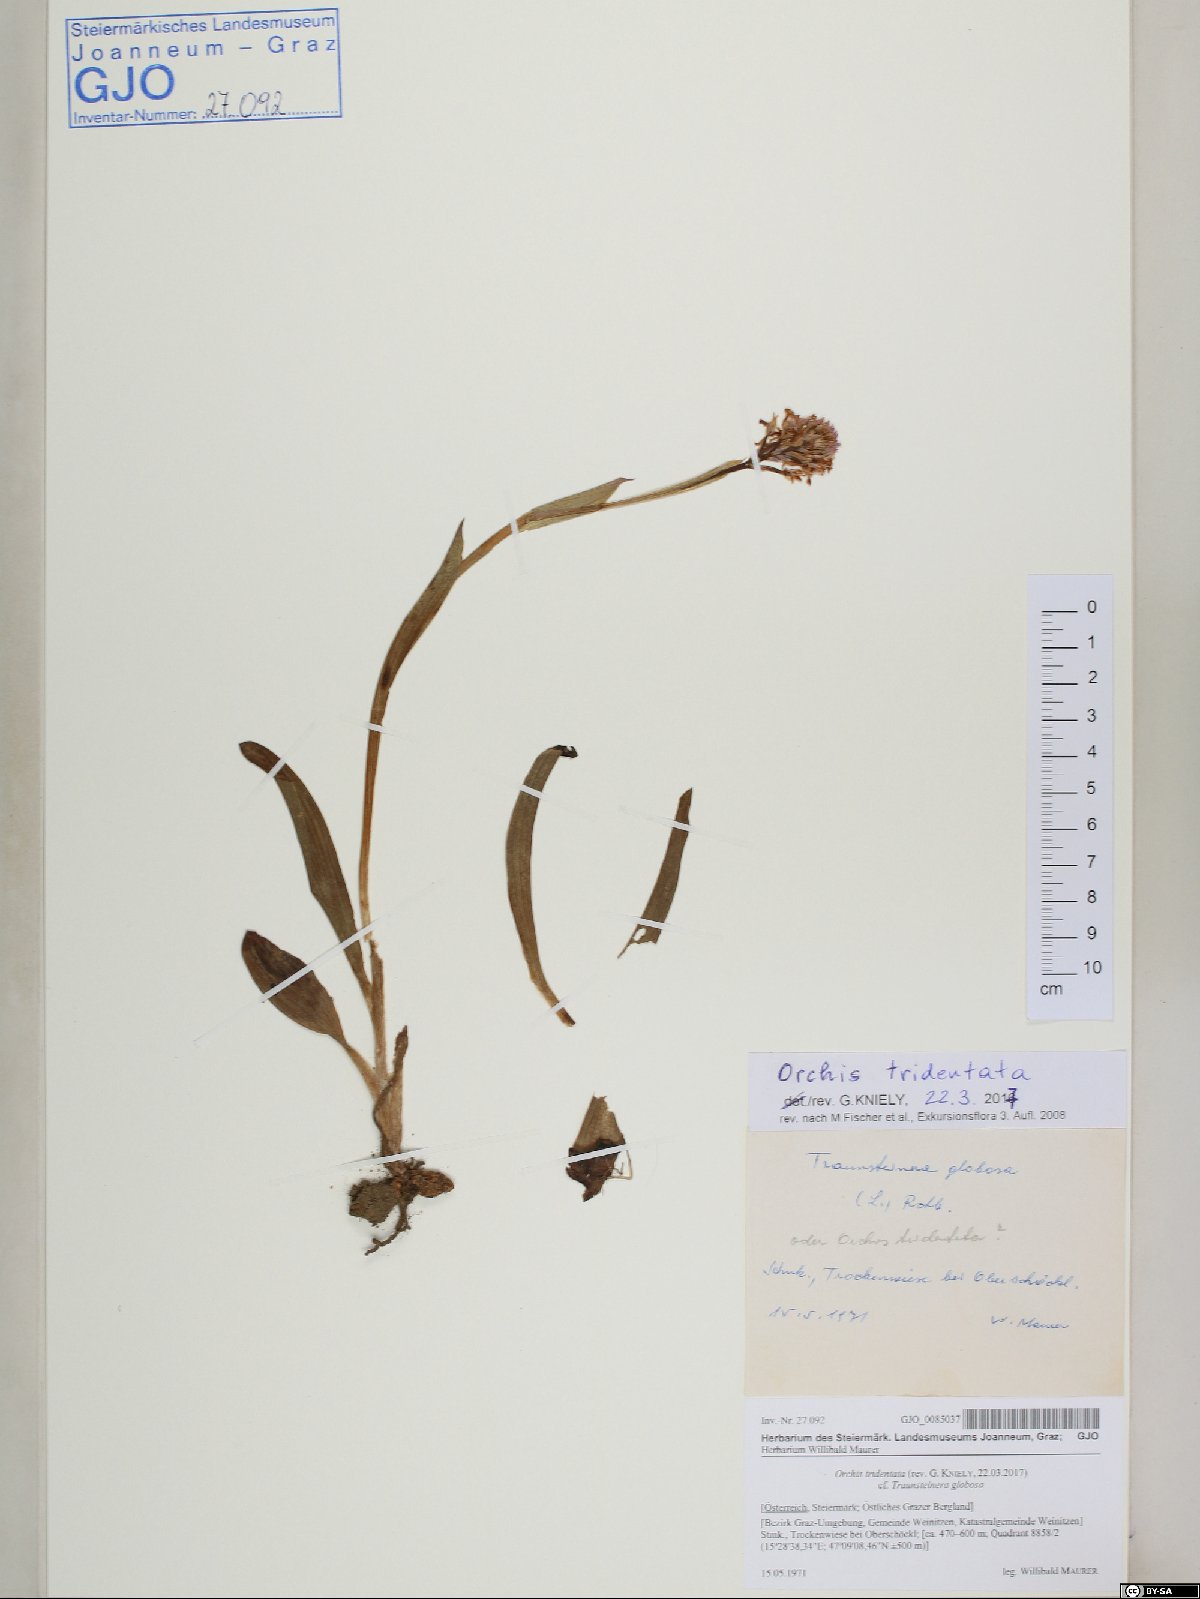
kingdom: Plantae
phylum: Tracheophyta
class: Liliopsida
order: Asparagales
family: Orchidaceae
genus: Neotinea
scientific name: Neotinea tridentata
